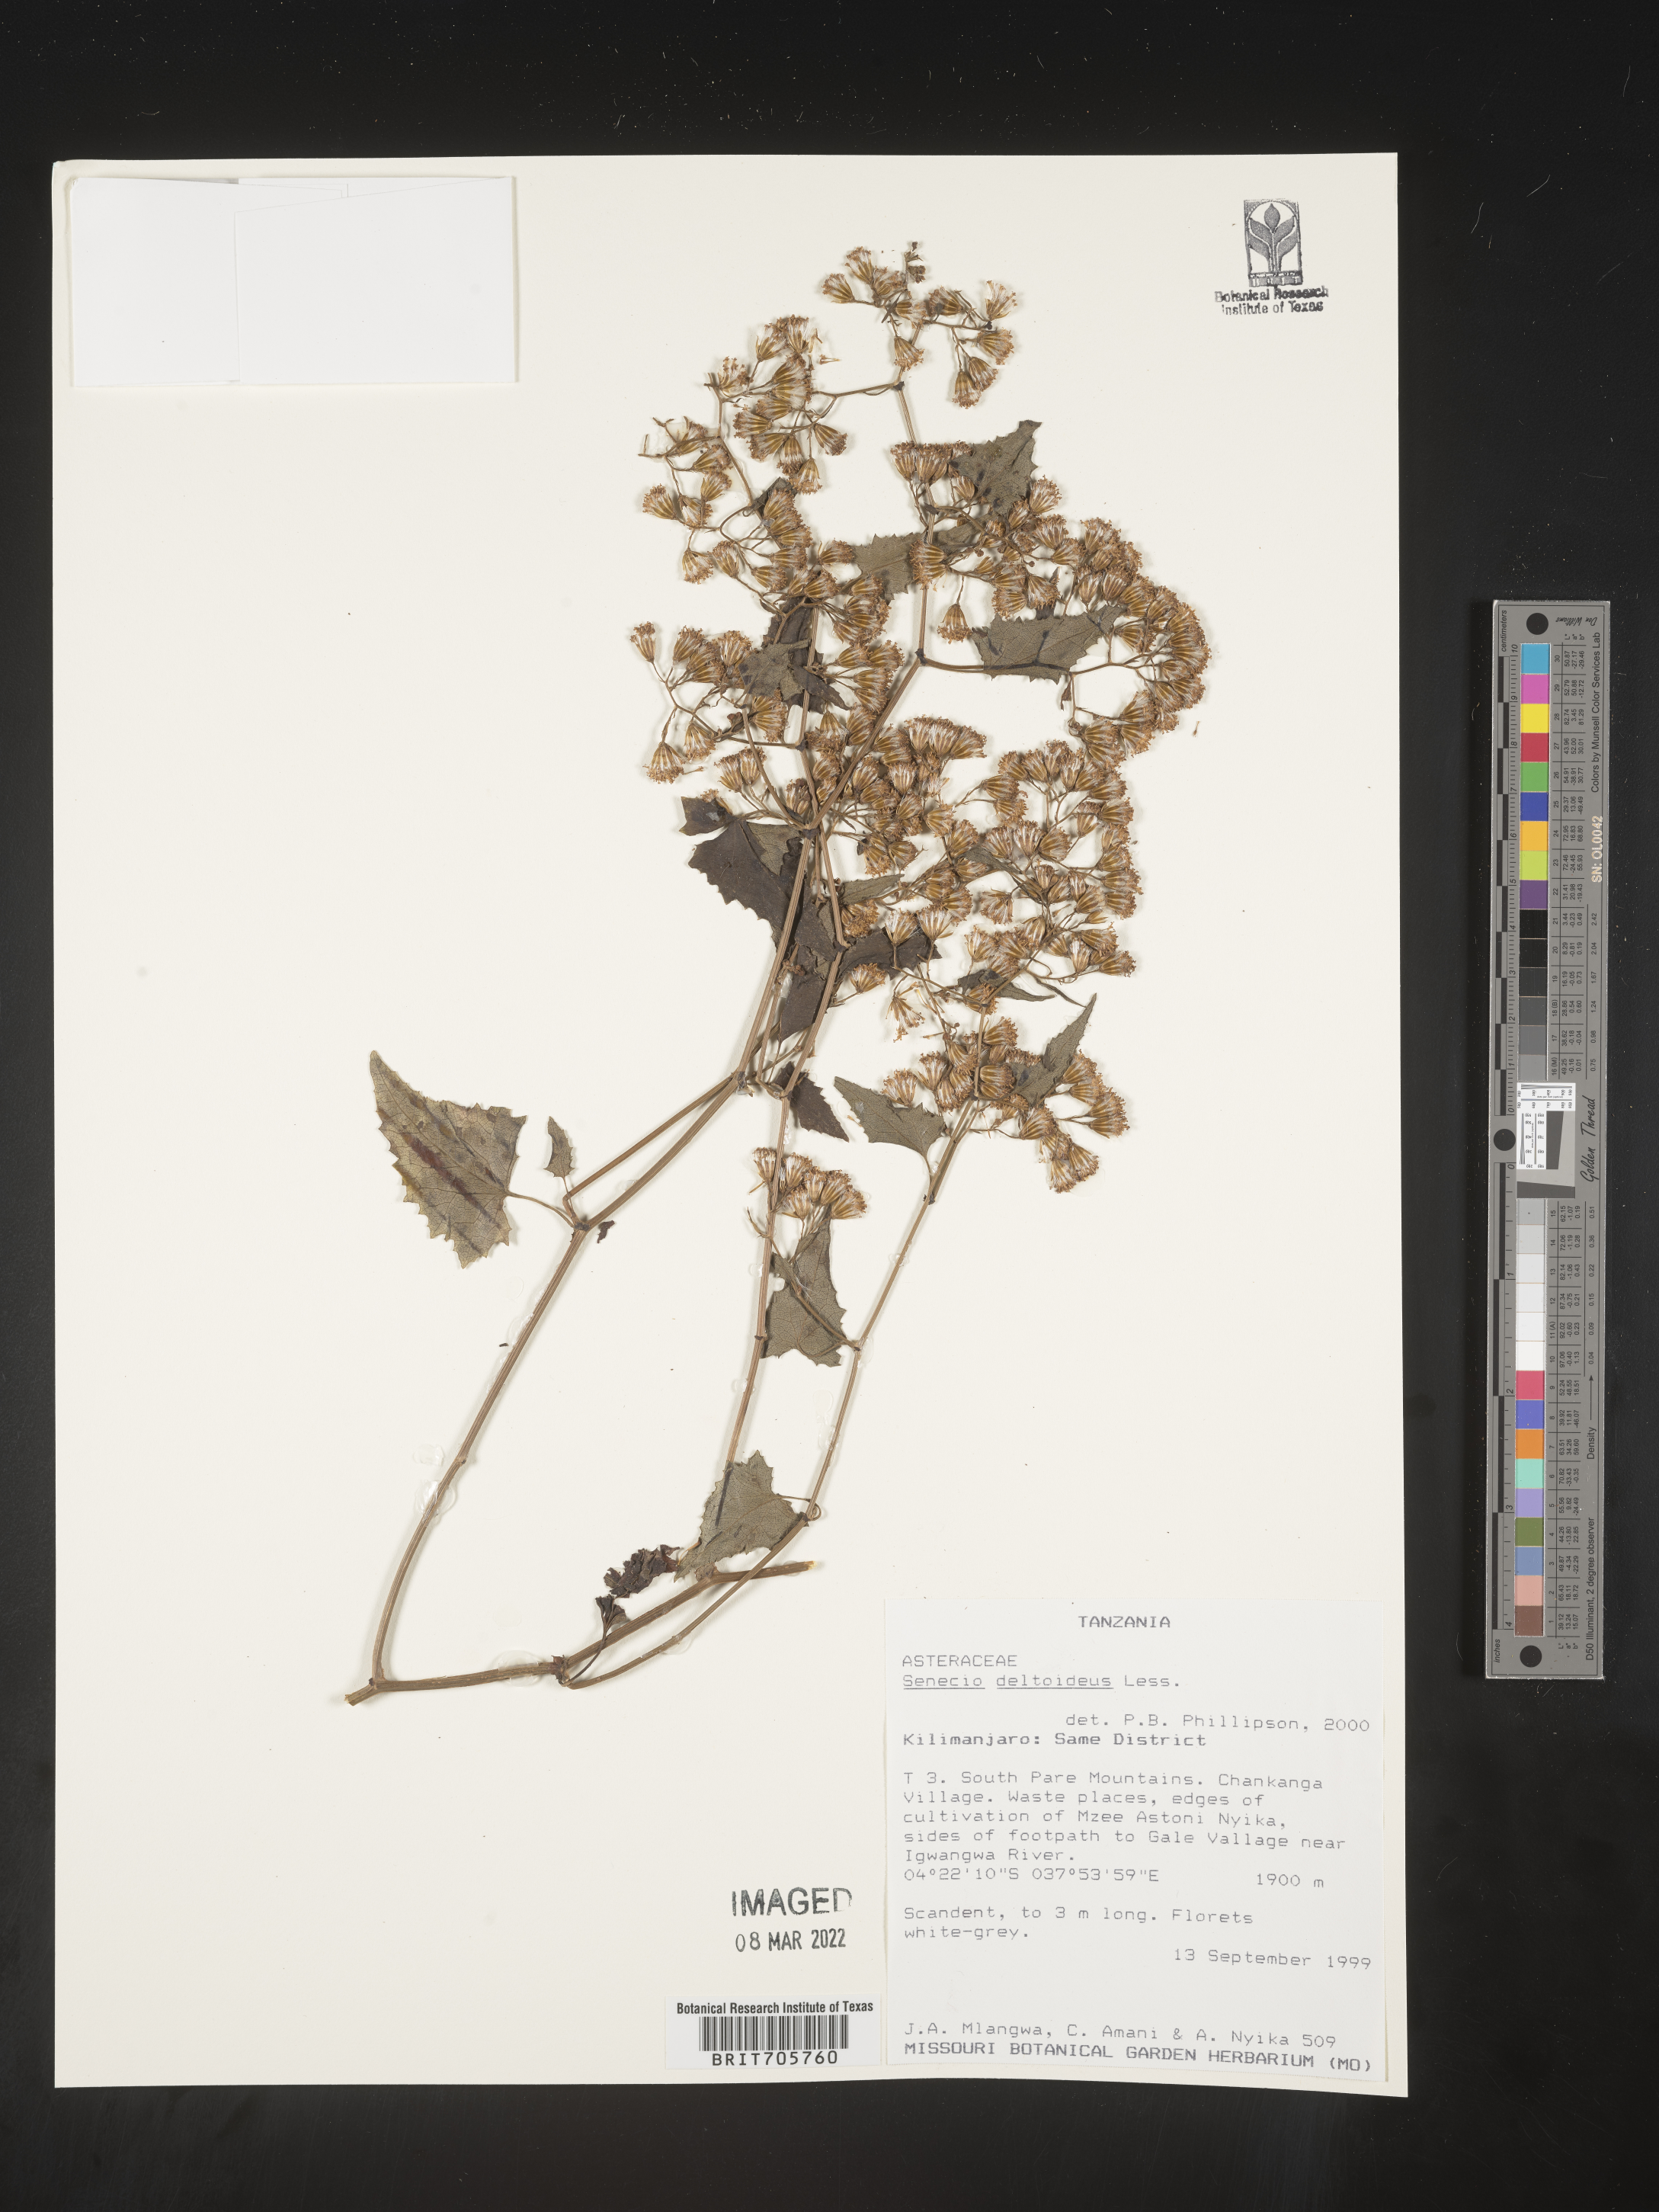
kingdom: Plantae
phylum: Tracheophyta
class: Magnoliopsida
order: Asterales
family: Asteraceae
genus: Senecio
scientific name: Senecio
